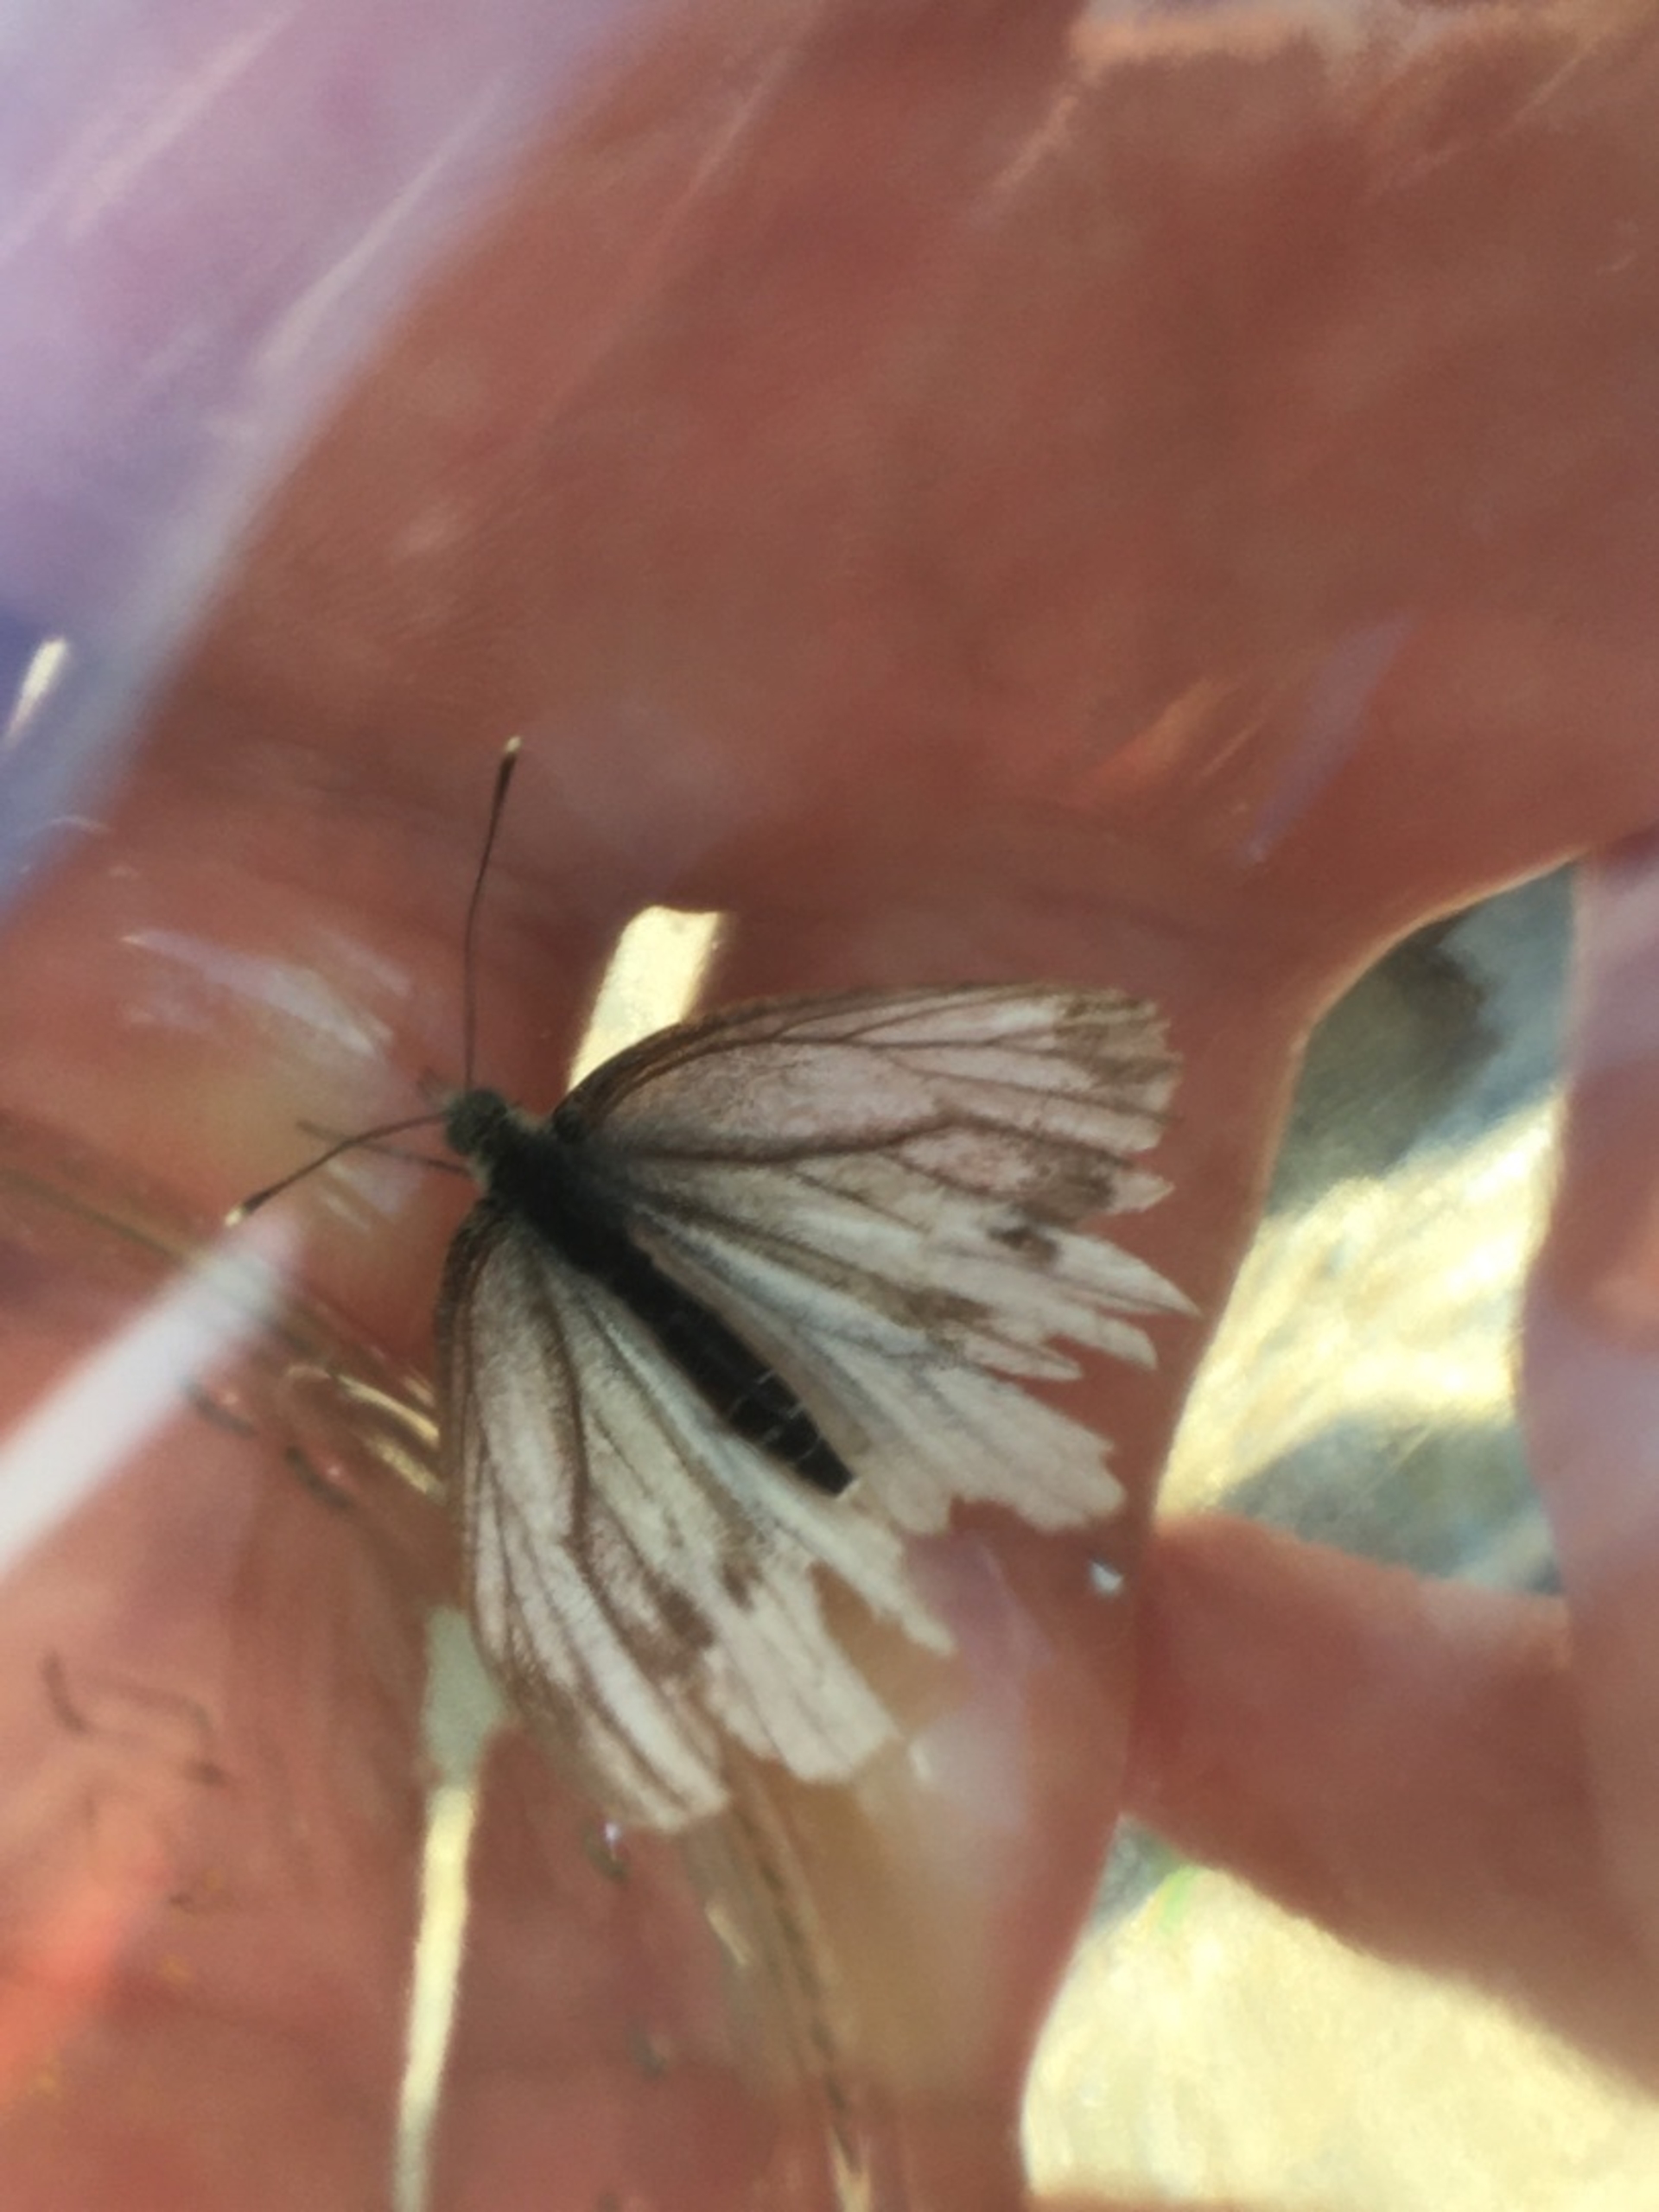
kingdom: Animalia
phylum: Arthropoda
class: Insecta
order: Lepidoptera
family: Pieridae
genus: Pieris
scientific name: Pieris napi
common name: Grønåret kålsommerfugl
